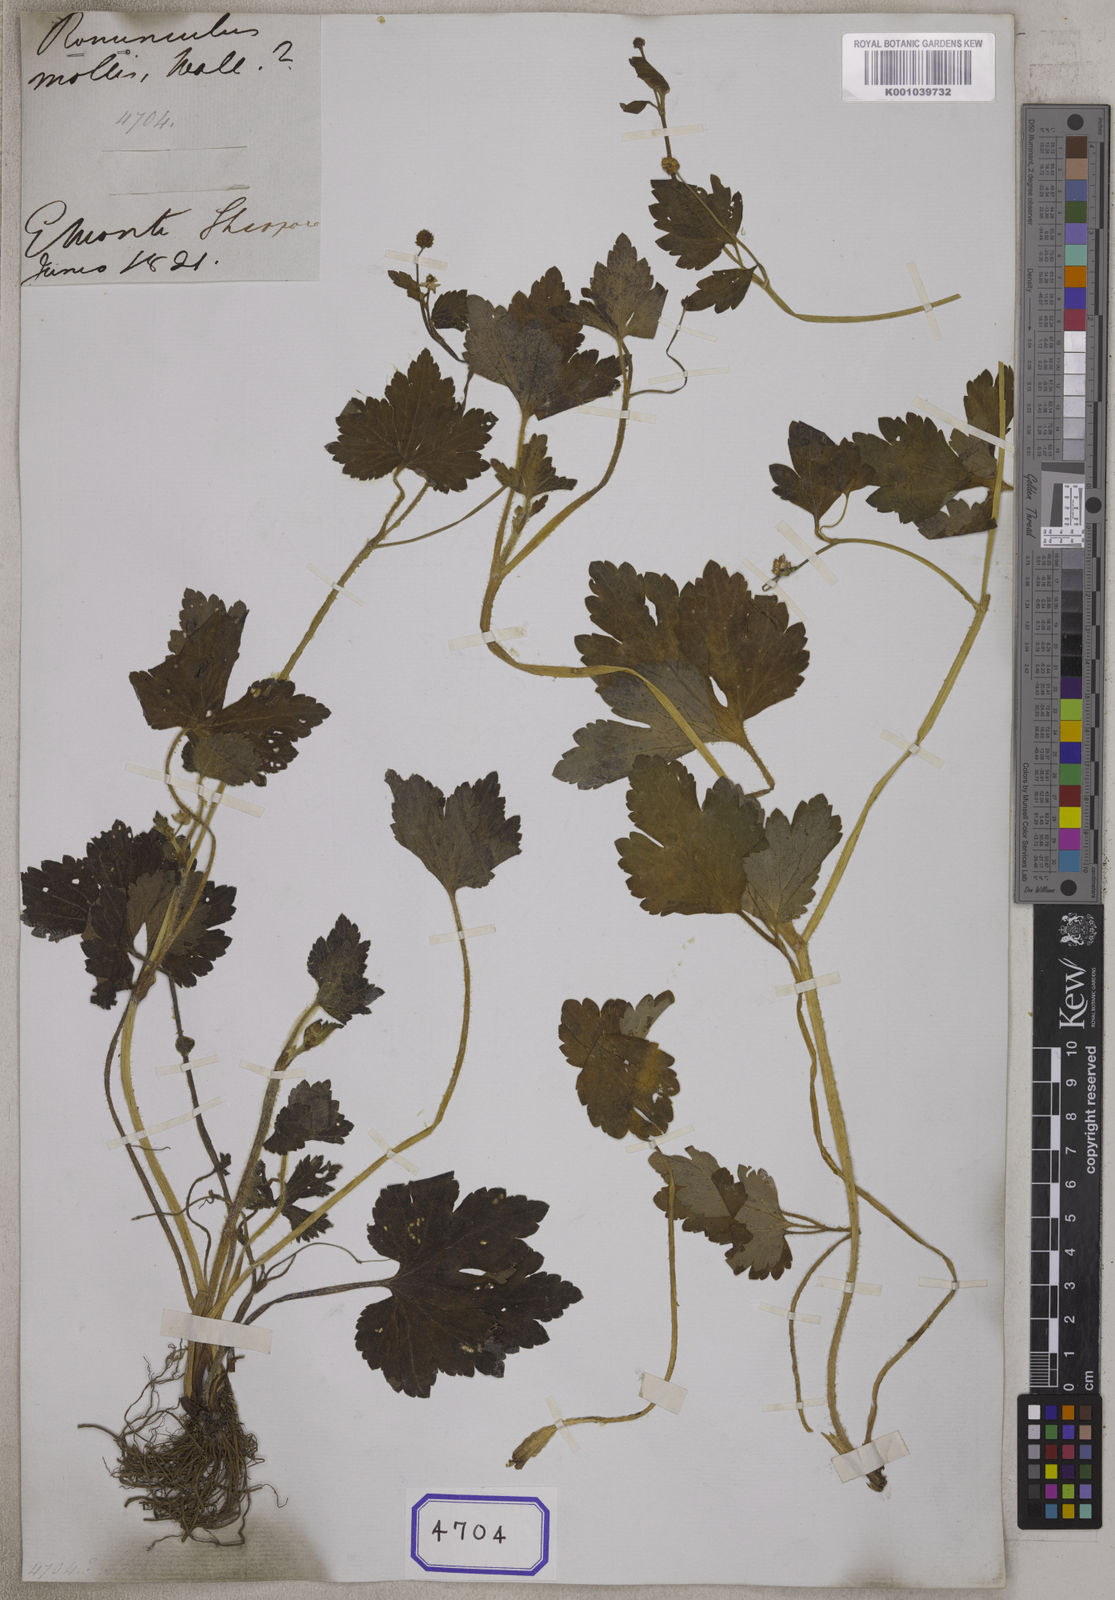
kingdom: Plantae
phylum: Tracheophyta
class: Magnoliopsida
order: Ranunculales
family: Ranunculaceae
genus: Ranunculus
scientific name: Ranunculus
